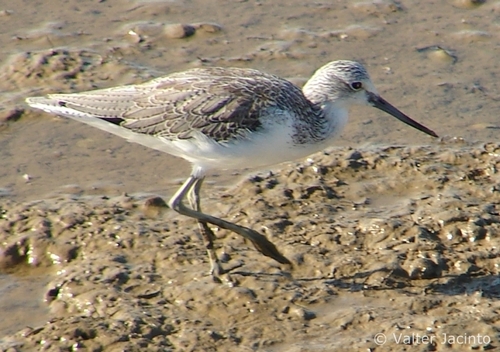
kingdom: Animalia
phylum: Chordata
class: Aves
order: Charadriiformes
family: Scolopacidae
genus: Tringa
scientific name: Tringa nebularia
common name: Common greenshank
